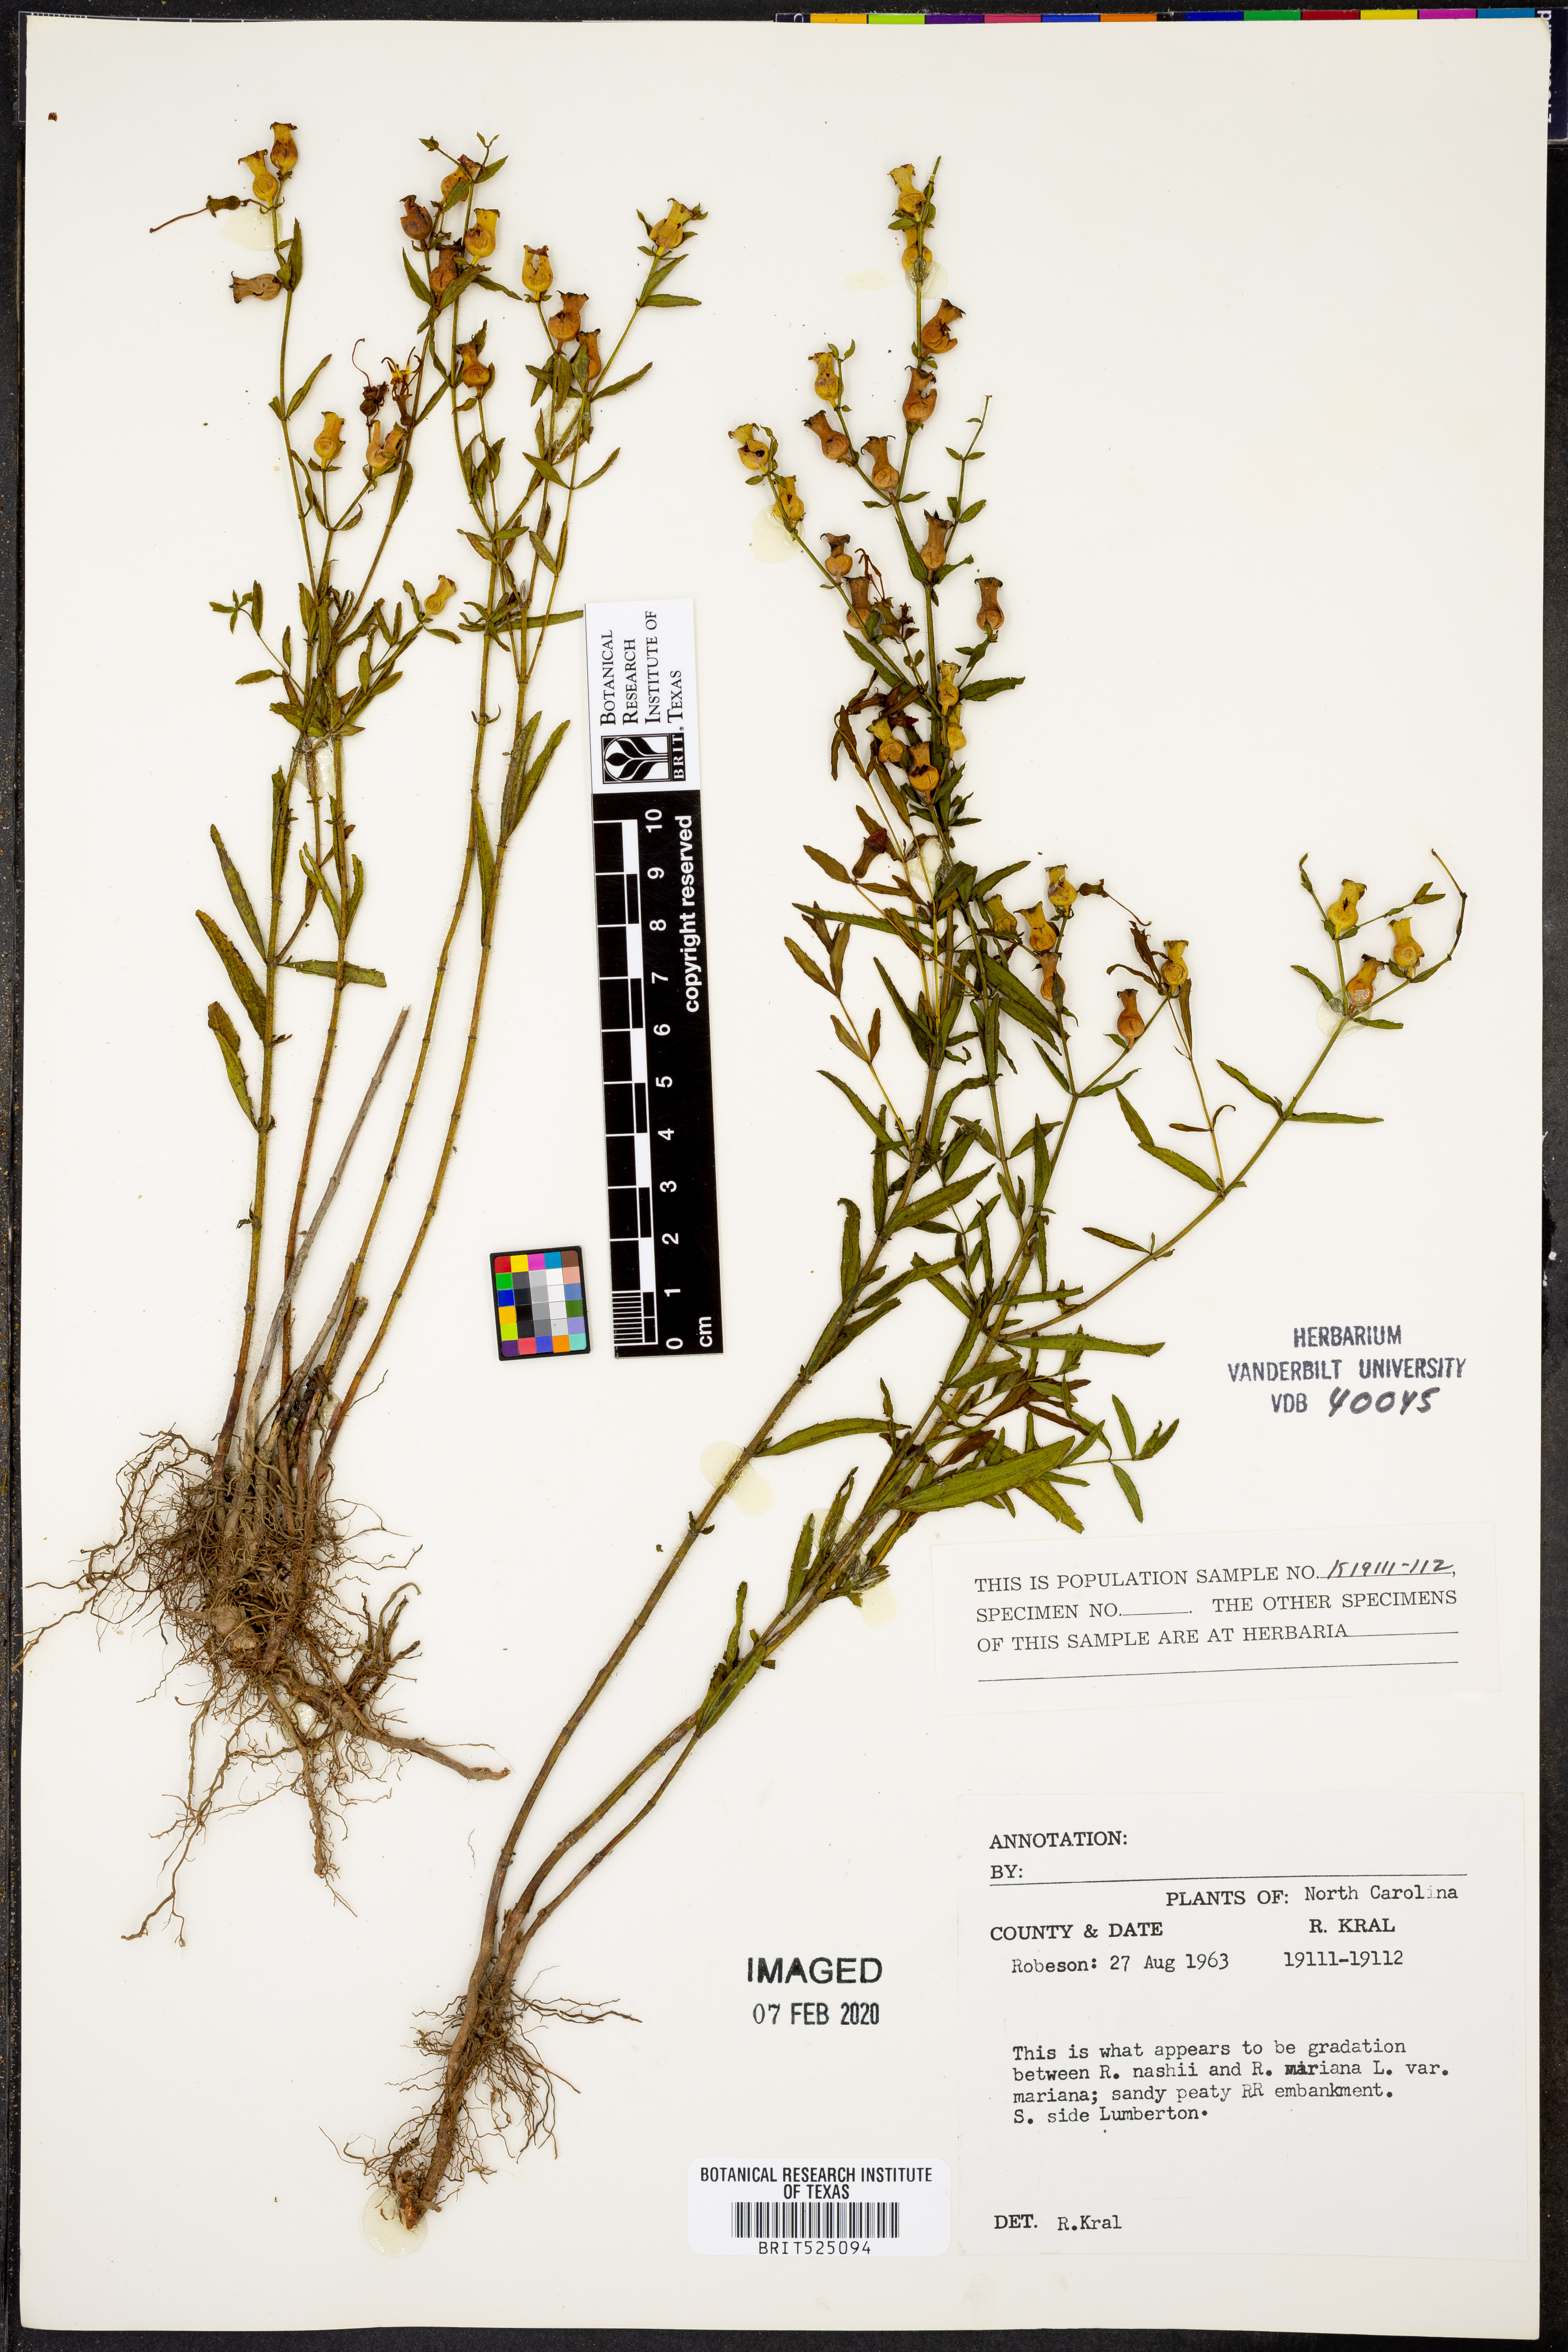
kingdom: Plantae
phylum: Tracheophyta
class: Magnoliopsida
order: Myrtales
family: Melastomataceae
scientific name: Melastomataceae
